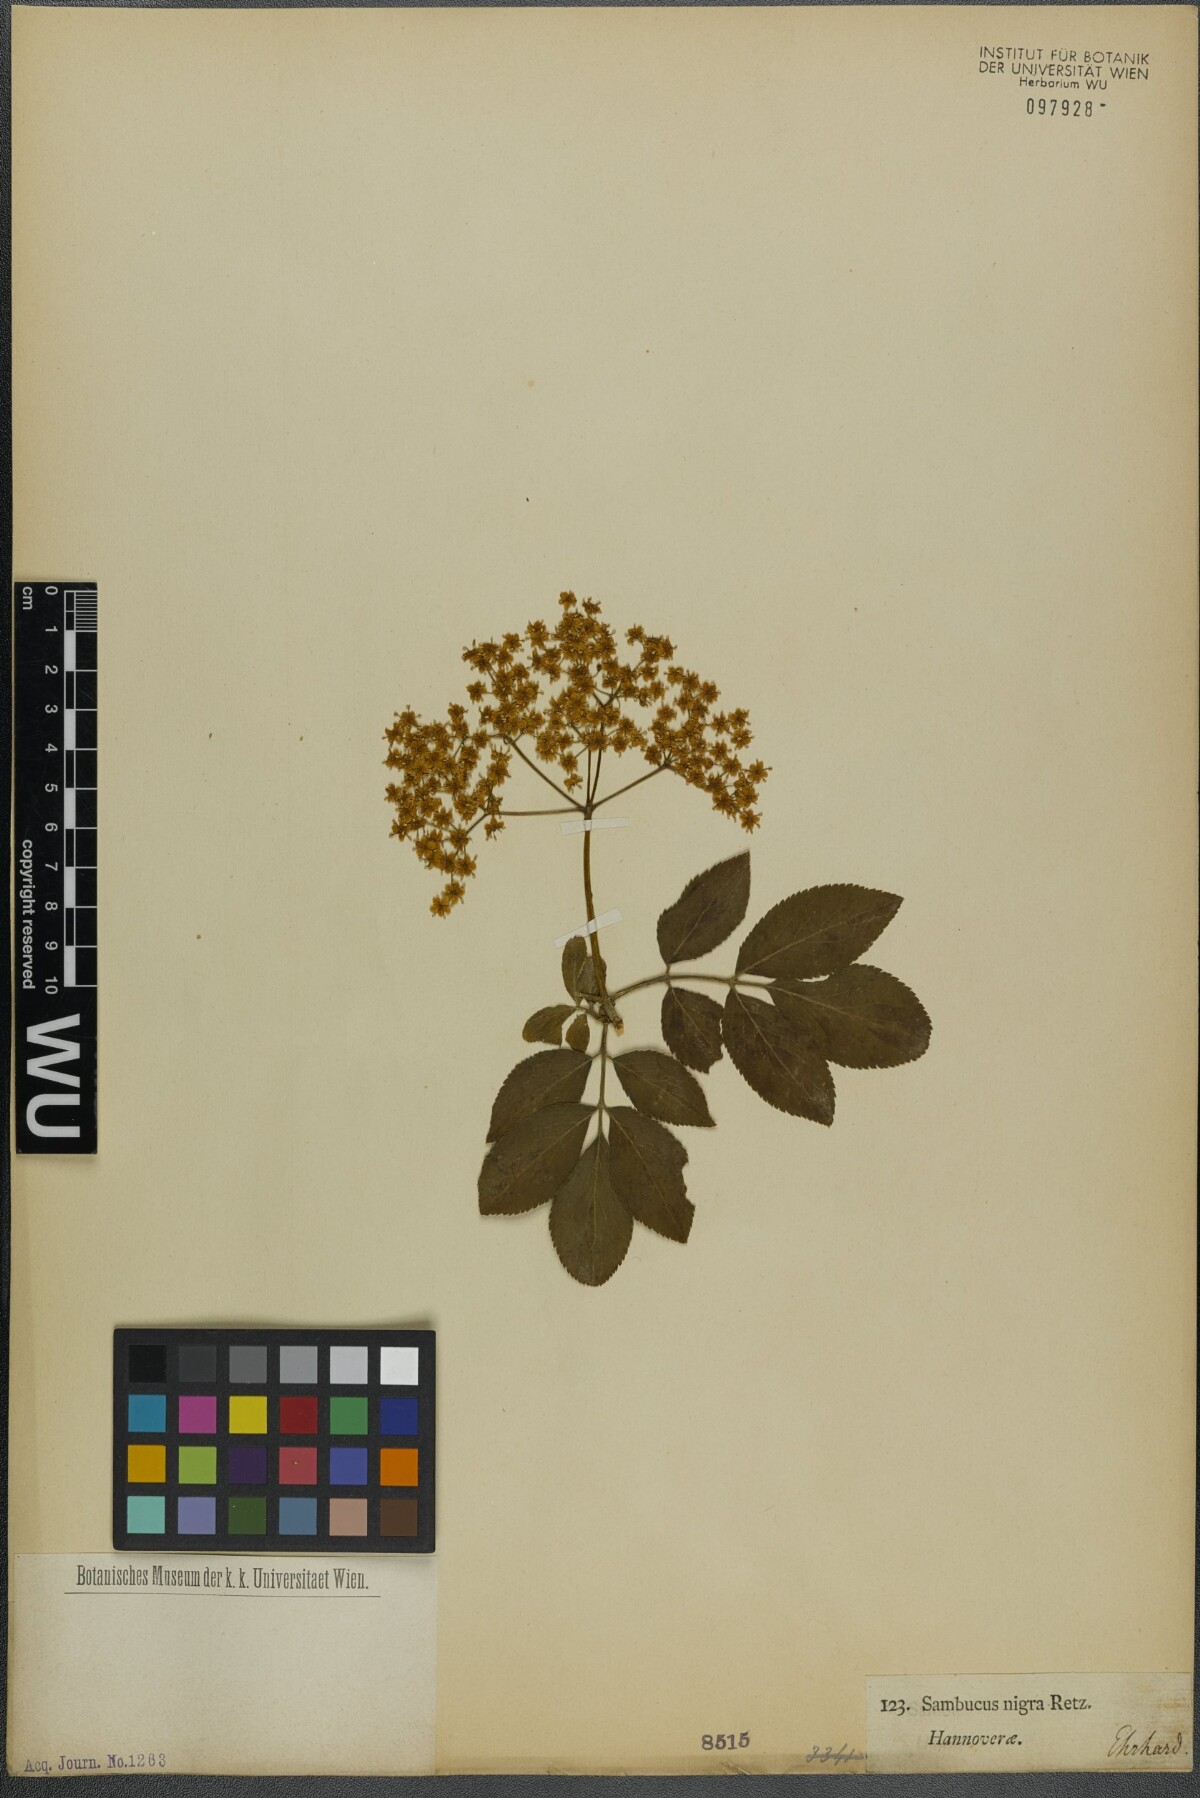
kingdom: Plantae
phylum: Tracheophyta
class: Magnoliopsida
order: Dipsacales
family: Viburnaceae
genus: Sambucus
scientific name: Sambucus nigra
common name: Elder
